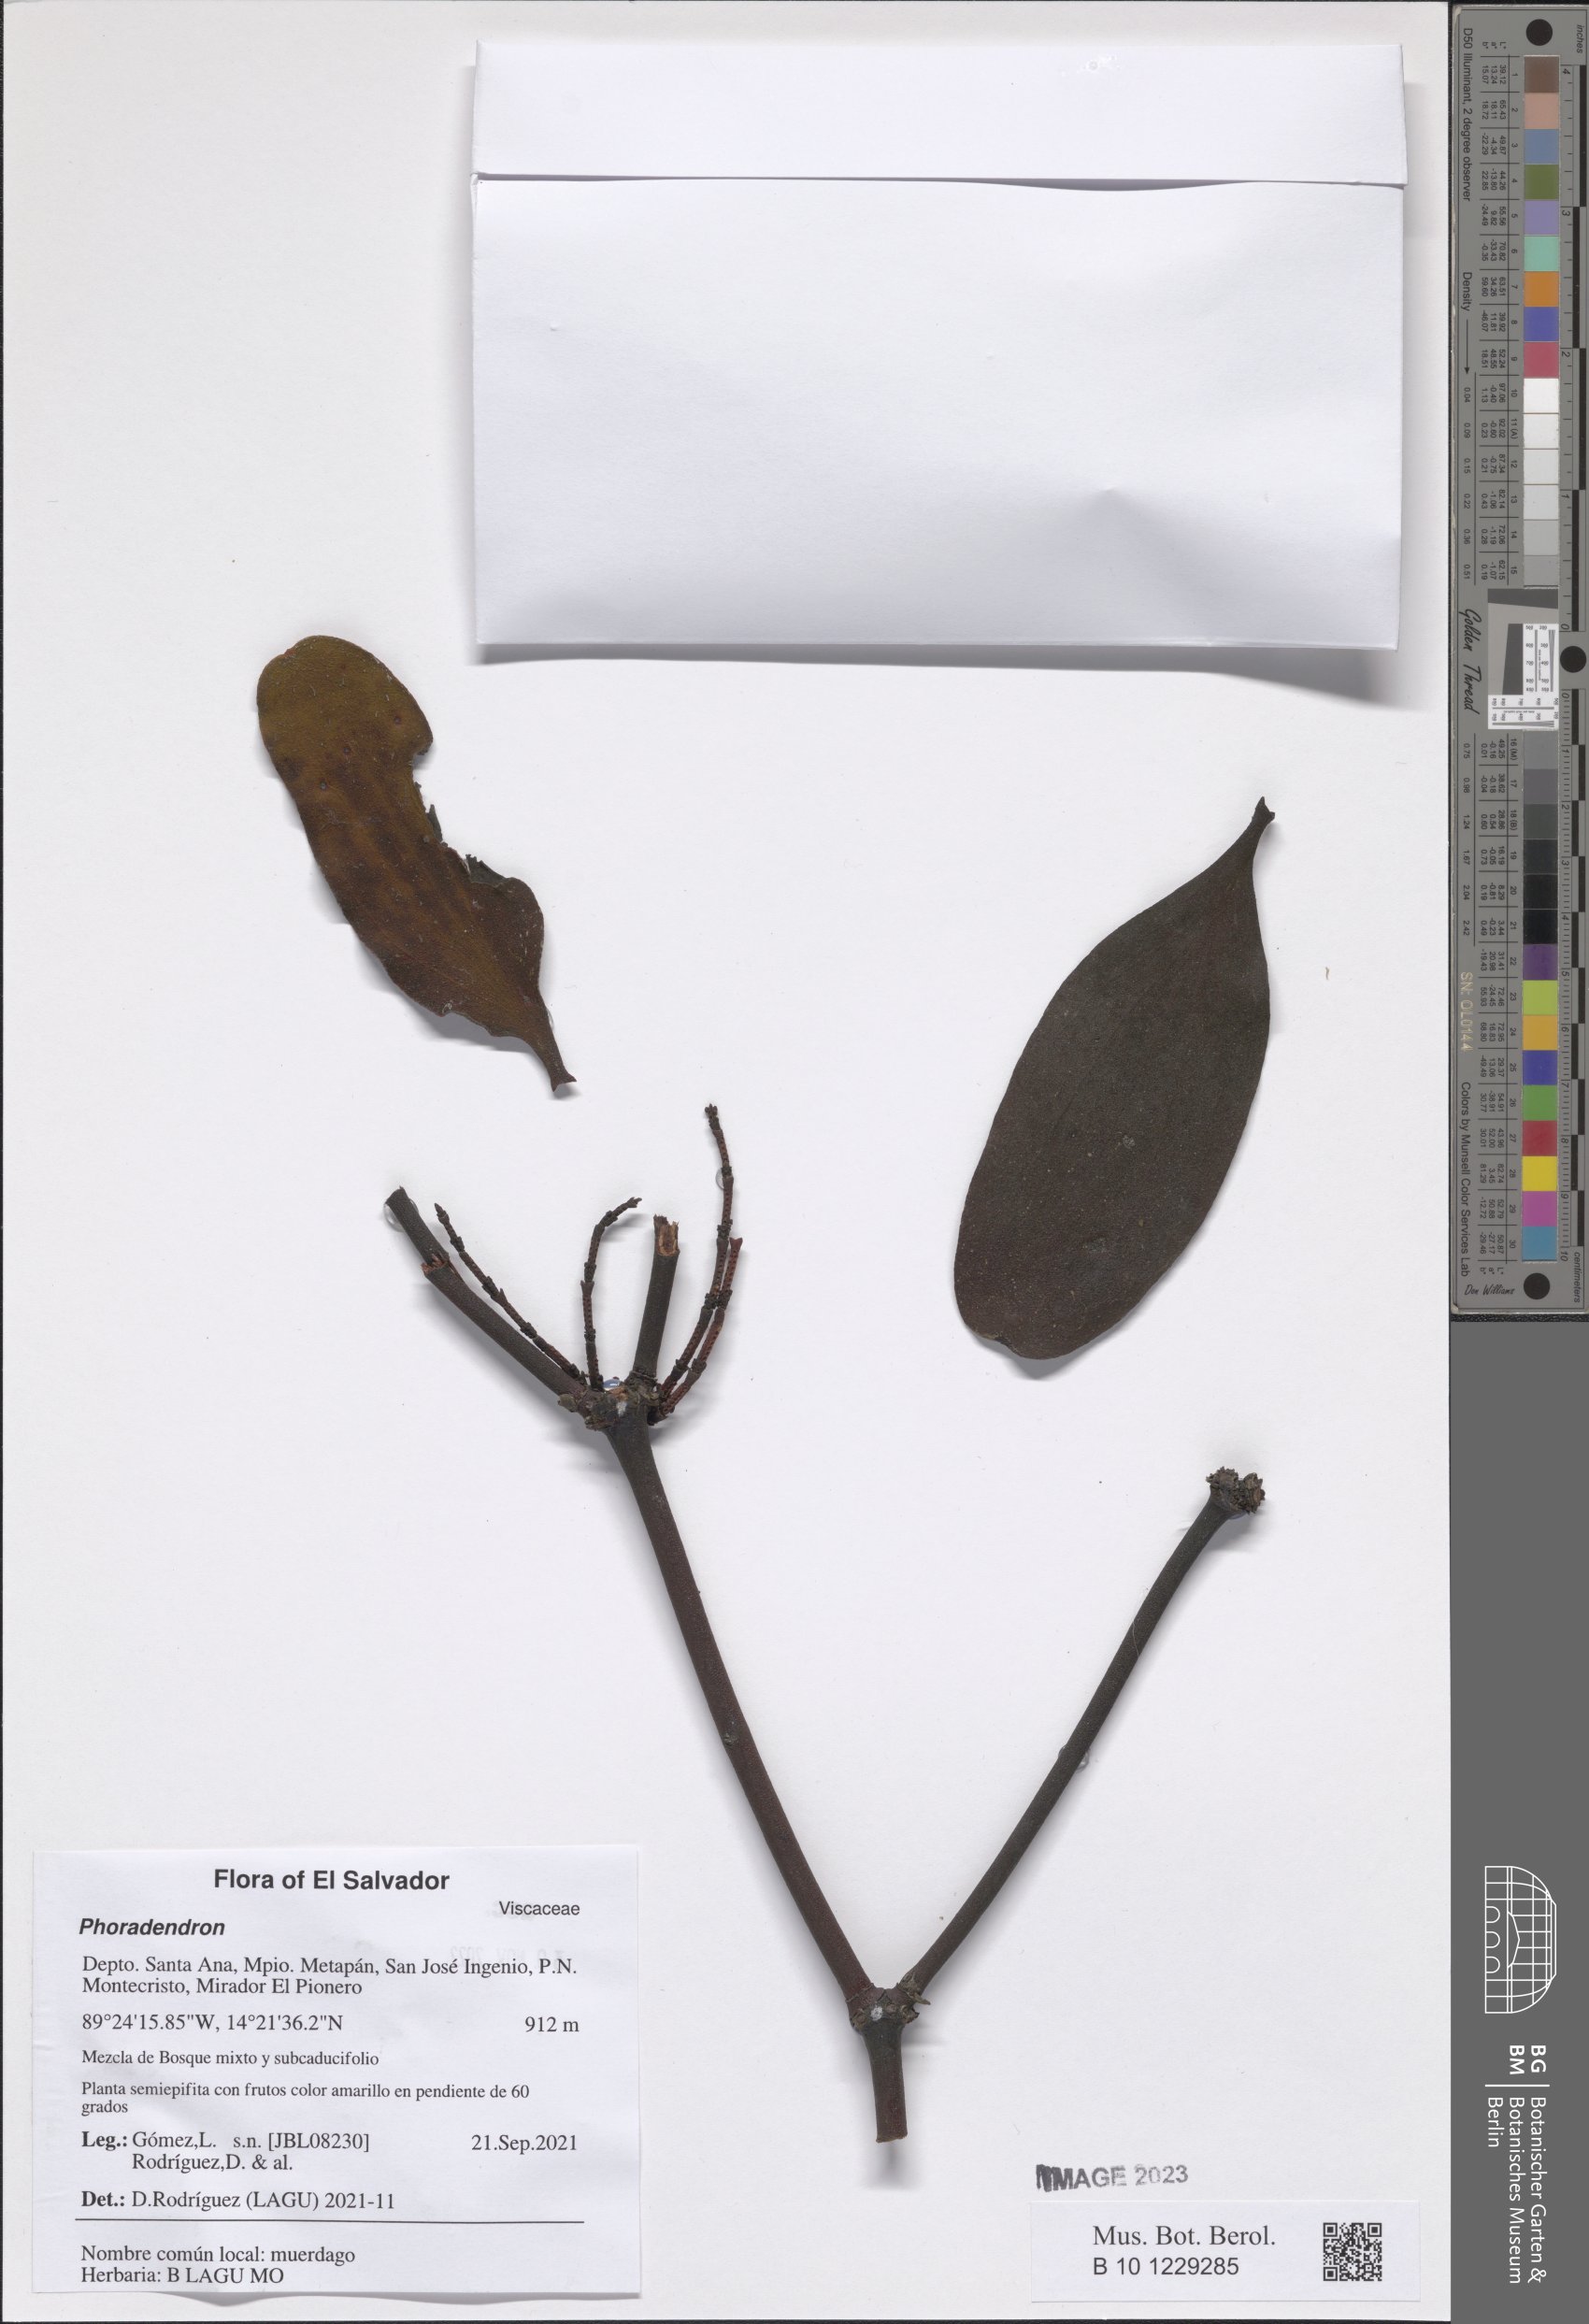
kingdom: Plantae
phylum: Tracheophyta
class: Magnoliopsida
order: Santalales
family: Viscaceae
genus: Phoradendron
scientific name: Phoradendron
